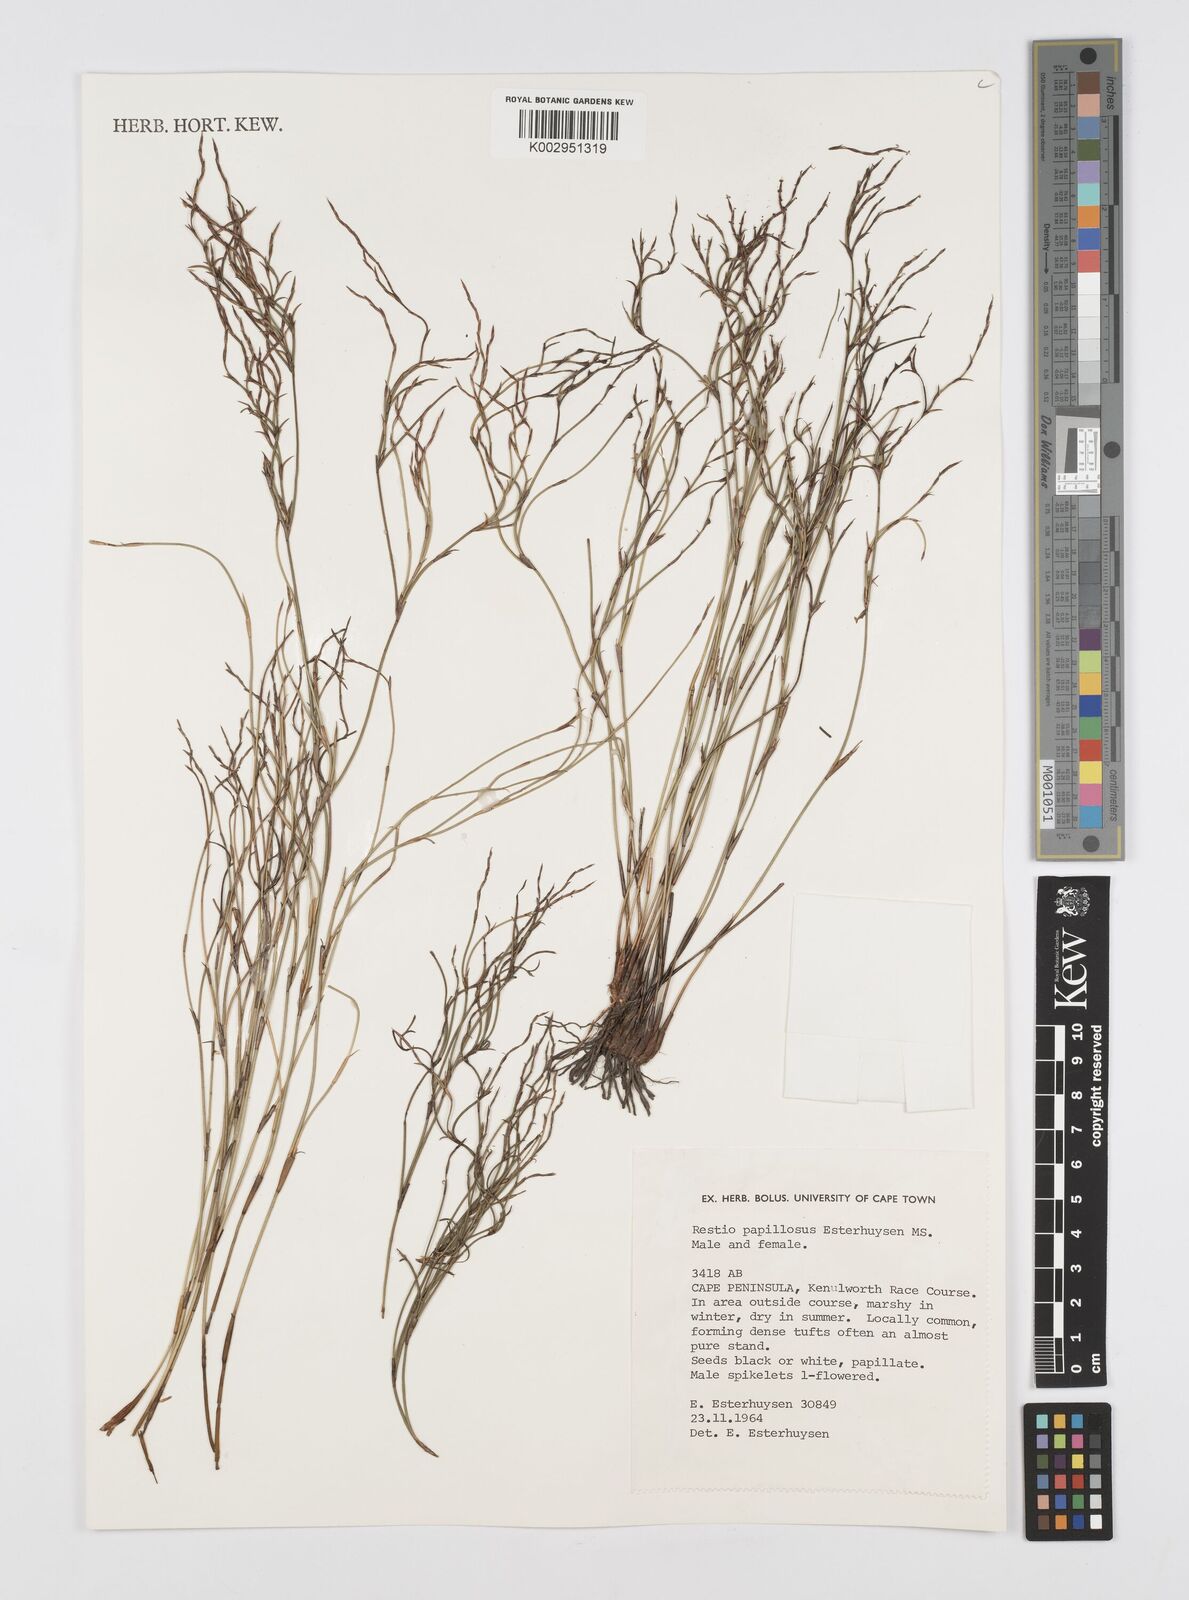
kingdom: Plantae
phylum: Tracheophyta
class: Liliopsida
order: Poales
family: Restionaceae
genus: Restio
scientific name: Restio papillosus
